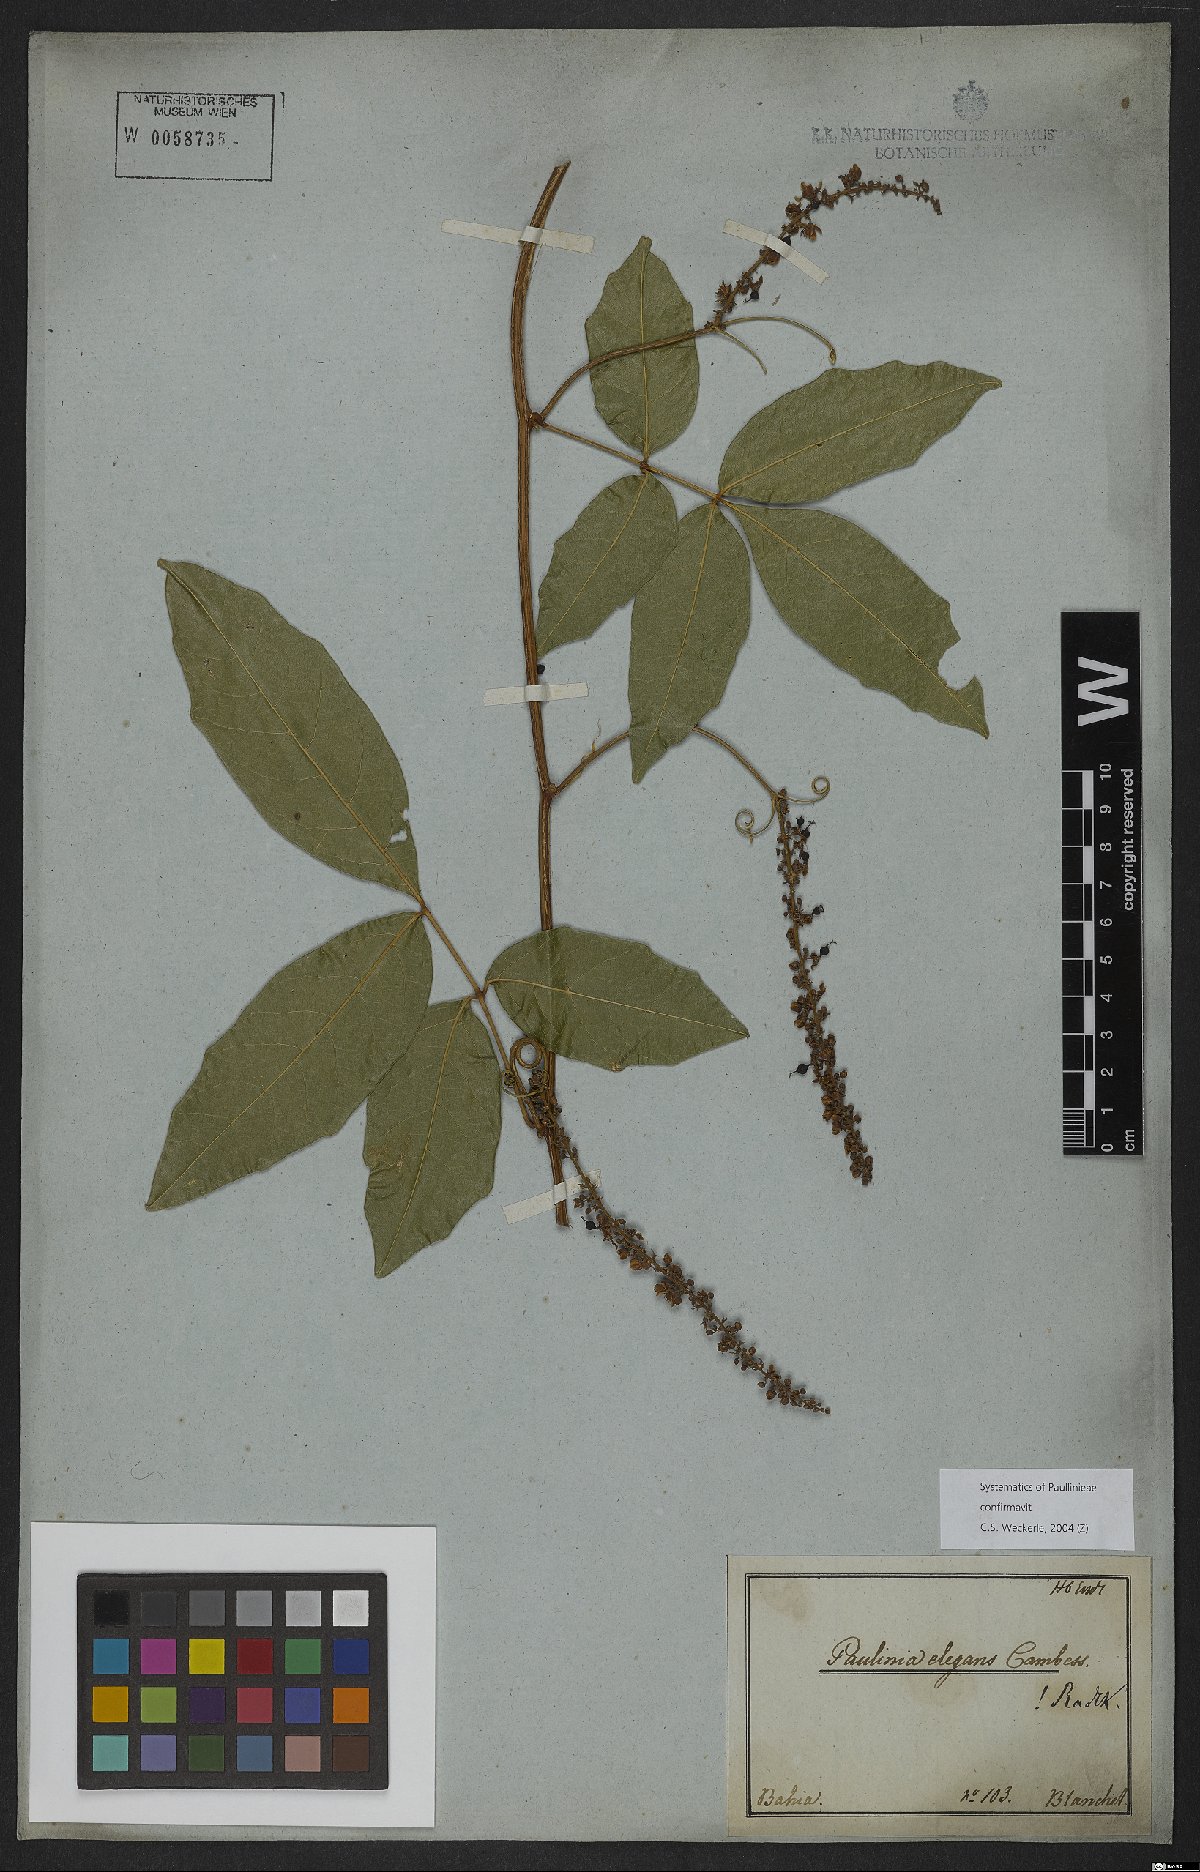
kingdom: Plantae
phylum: Tracheophyta
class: Magnoliopsida
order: Sapindales
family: Sapindaceae
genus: Paullinia
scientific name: Paullinia elegans
